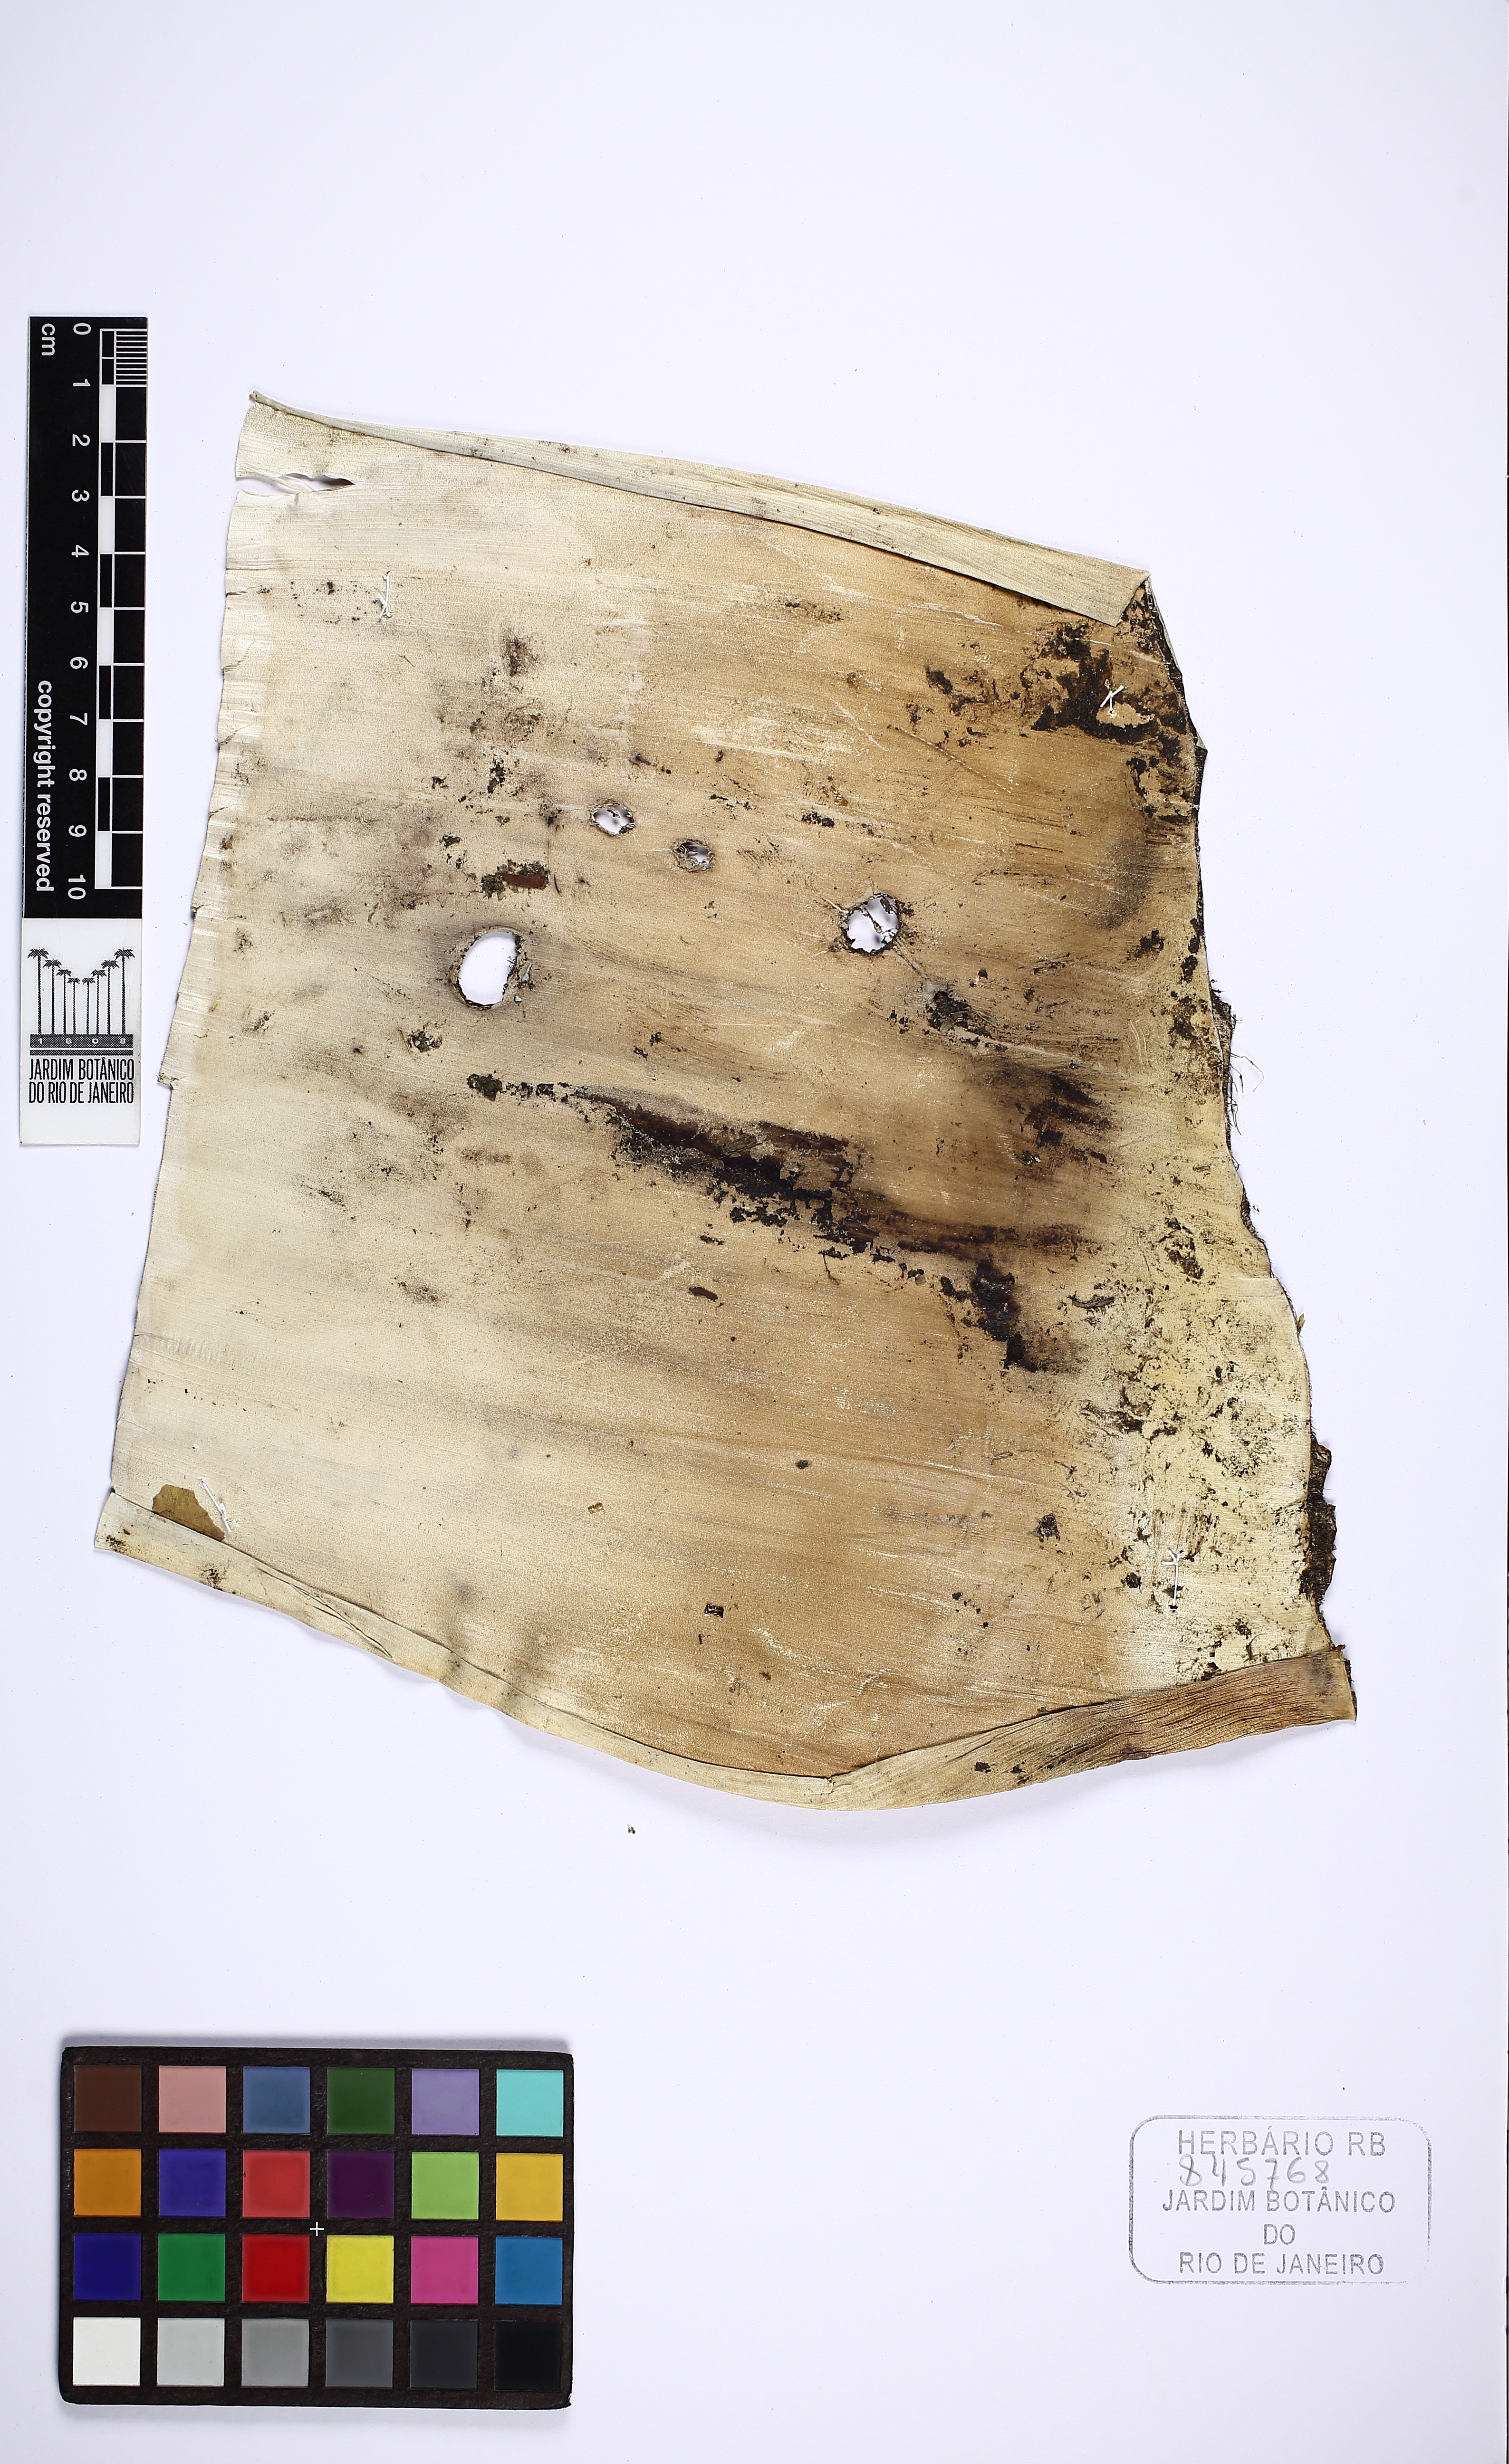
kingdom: Plantae
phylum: Tracheophyta
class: Liliopsida
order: Poales
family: Bromeliaceae
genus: Alcantarea
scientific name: Alcantarea imperialis
